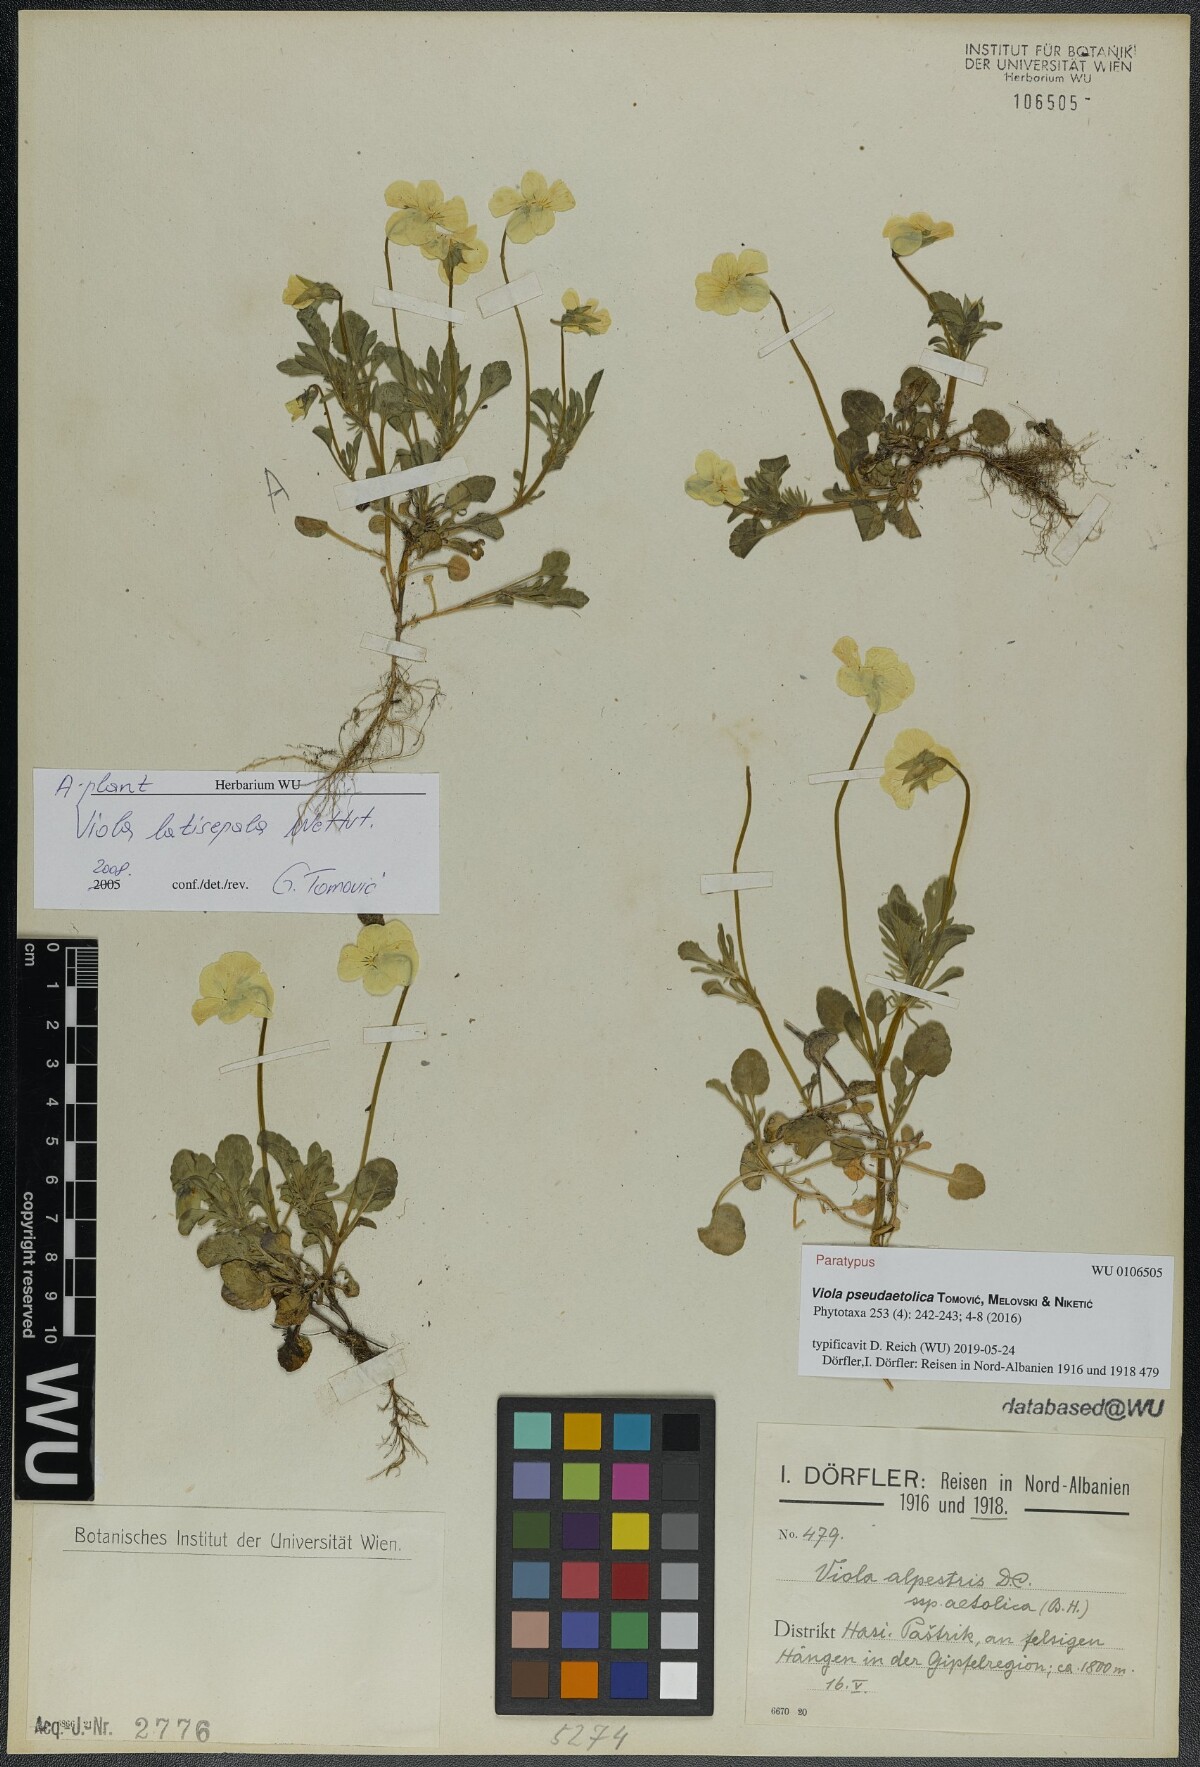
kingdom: Plantae
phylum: Tracheophyta
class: Magnoliopsida
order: Malpighiales
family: Violaceae
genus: Viola
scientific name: Viola pseudaetolica
